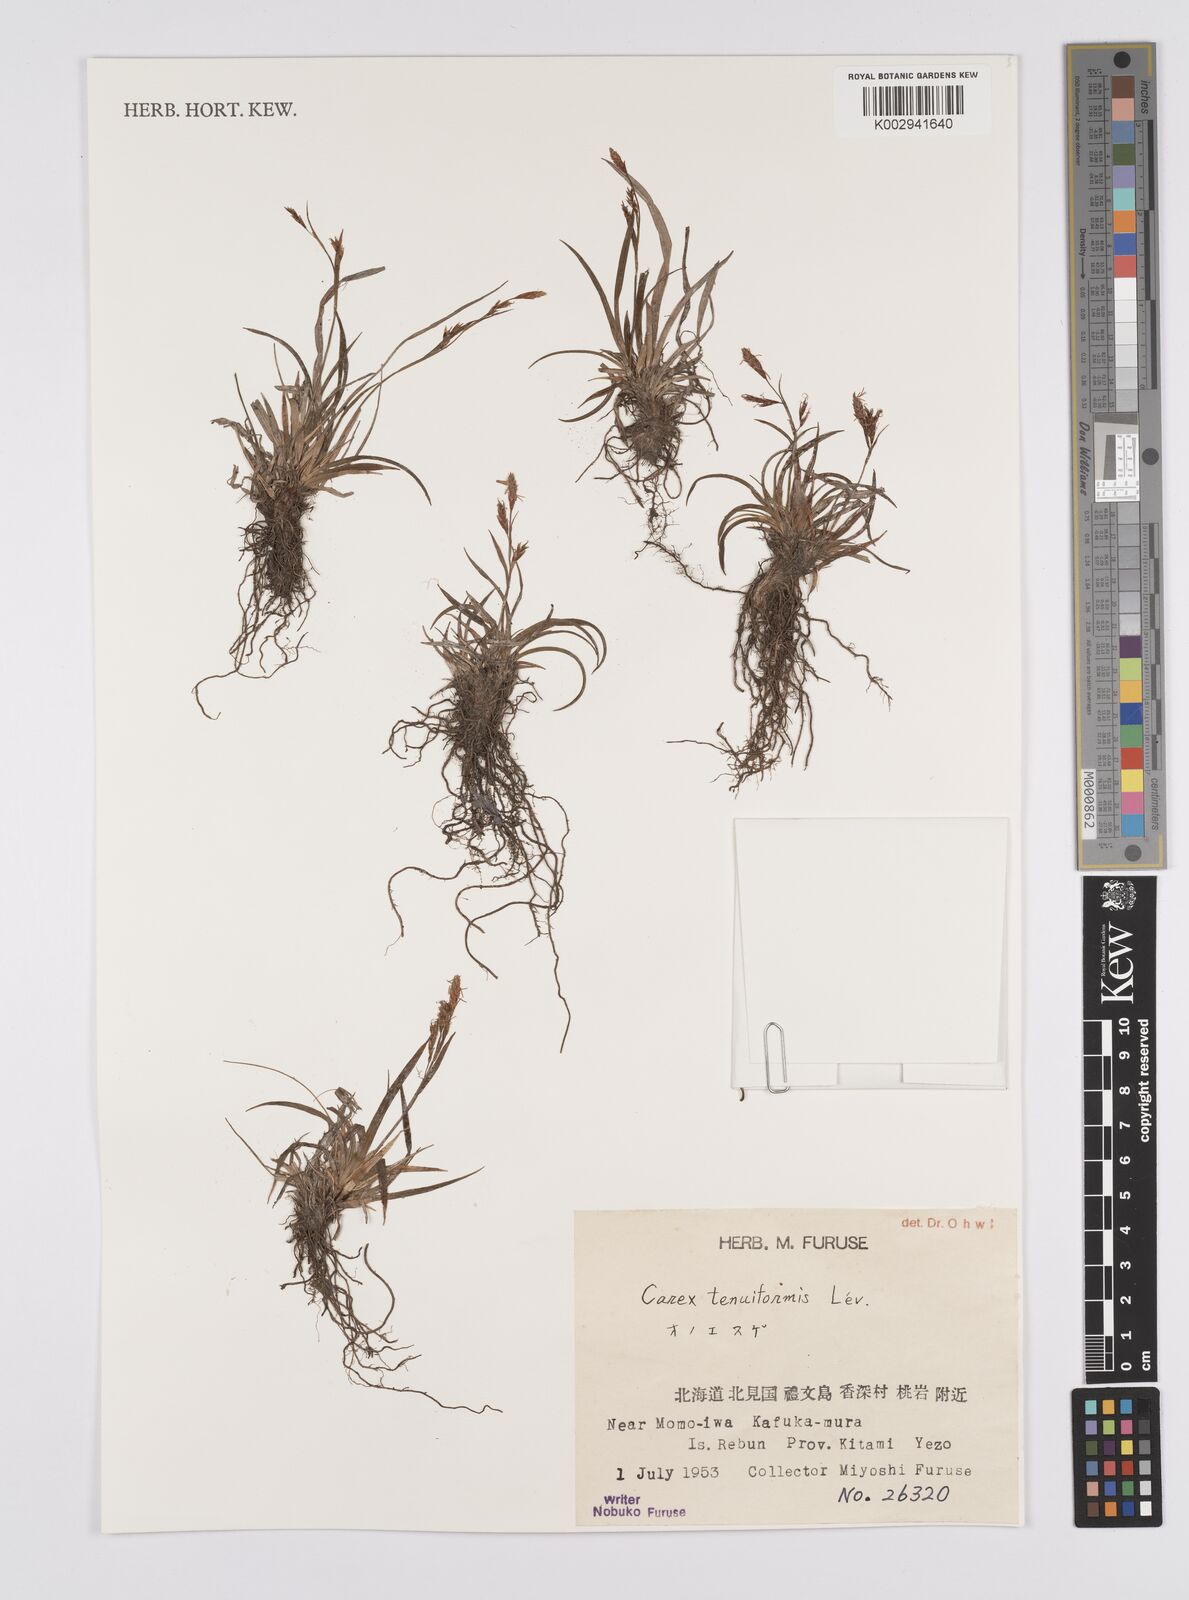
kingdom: Plantae
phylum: Tracheophyta
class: Liliopsida
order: Poales
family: Cyperaceae
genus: Carex
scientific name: Carex tenuiformis
